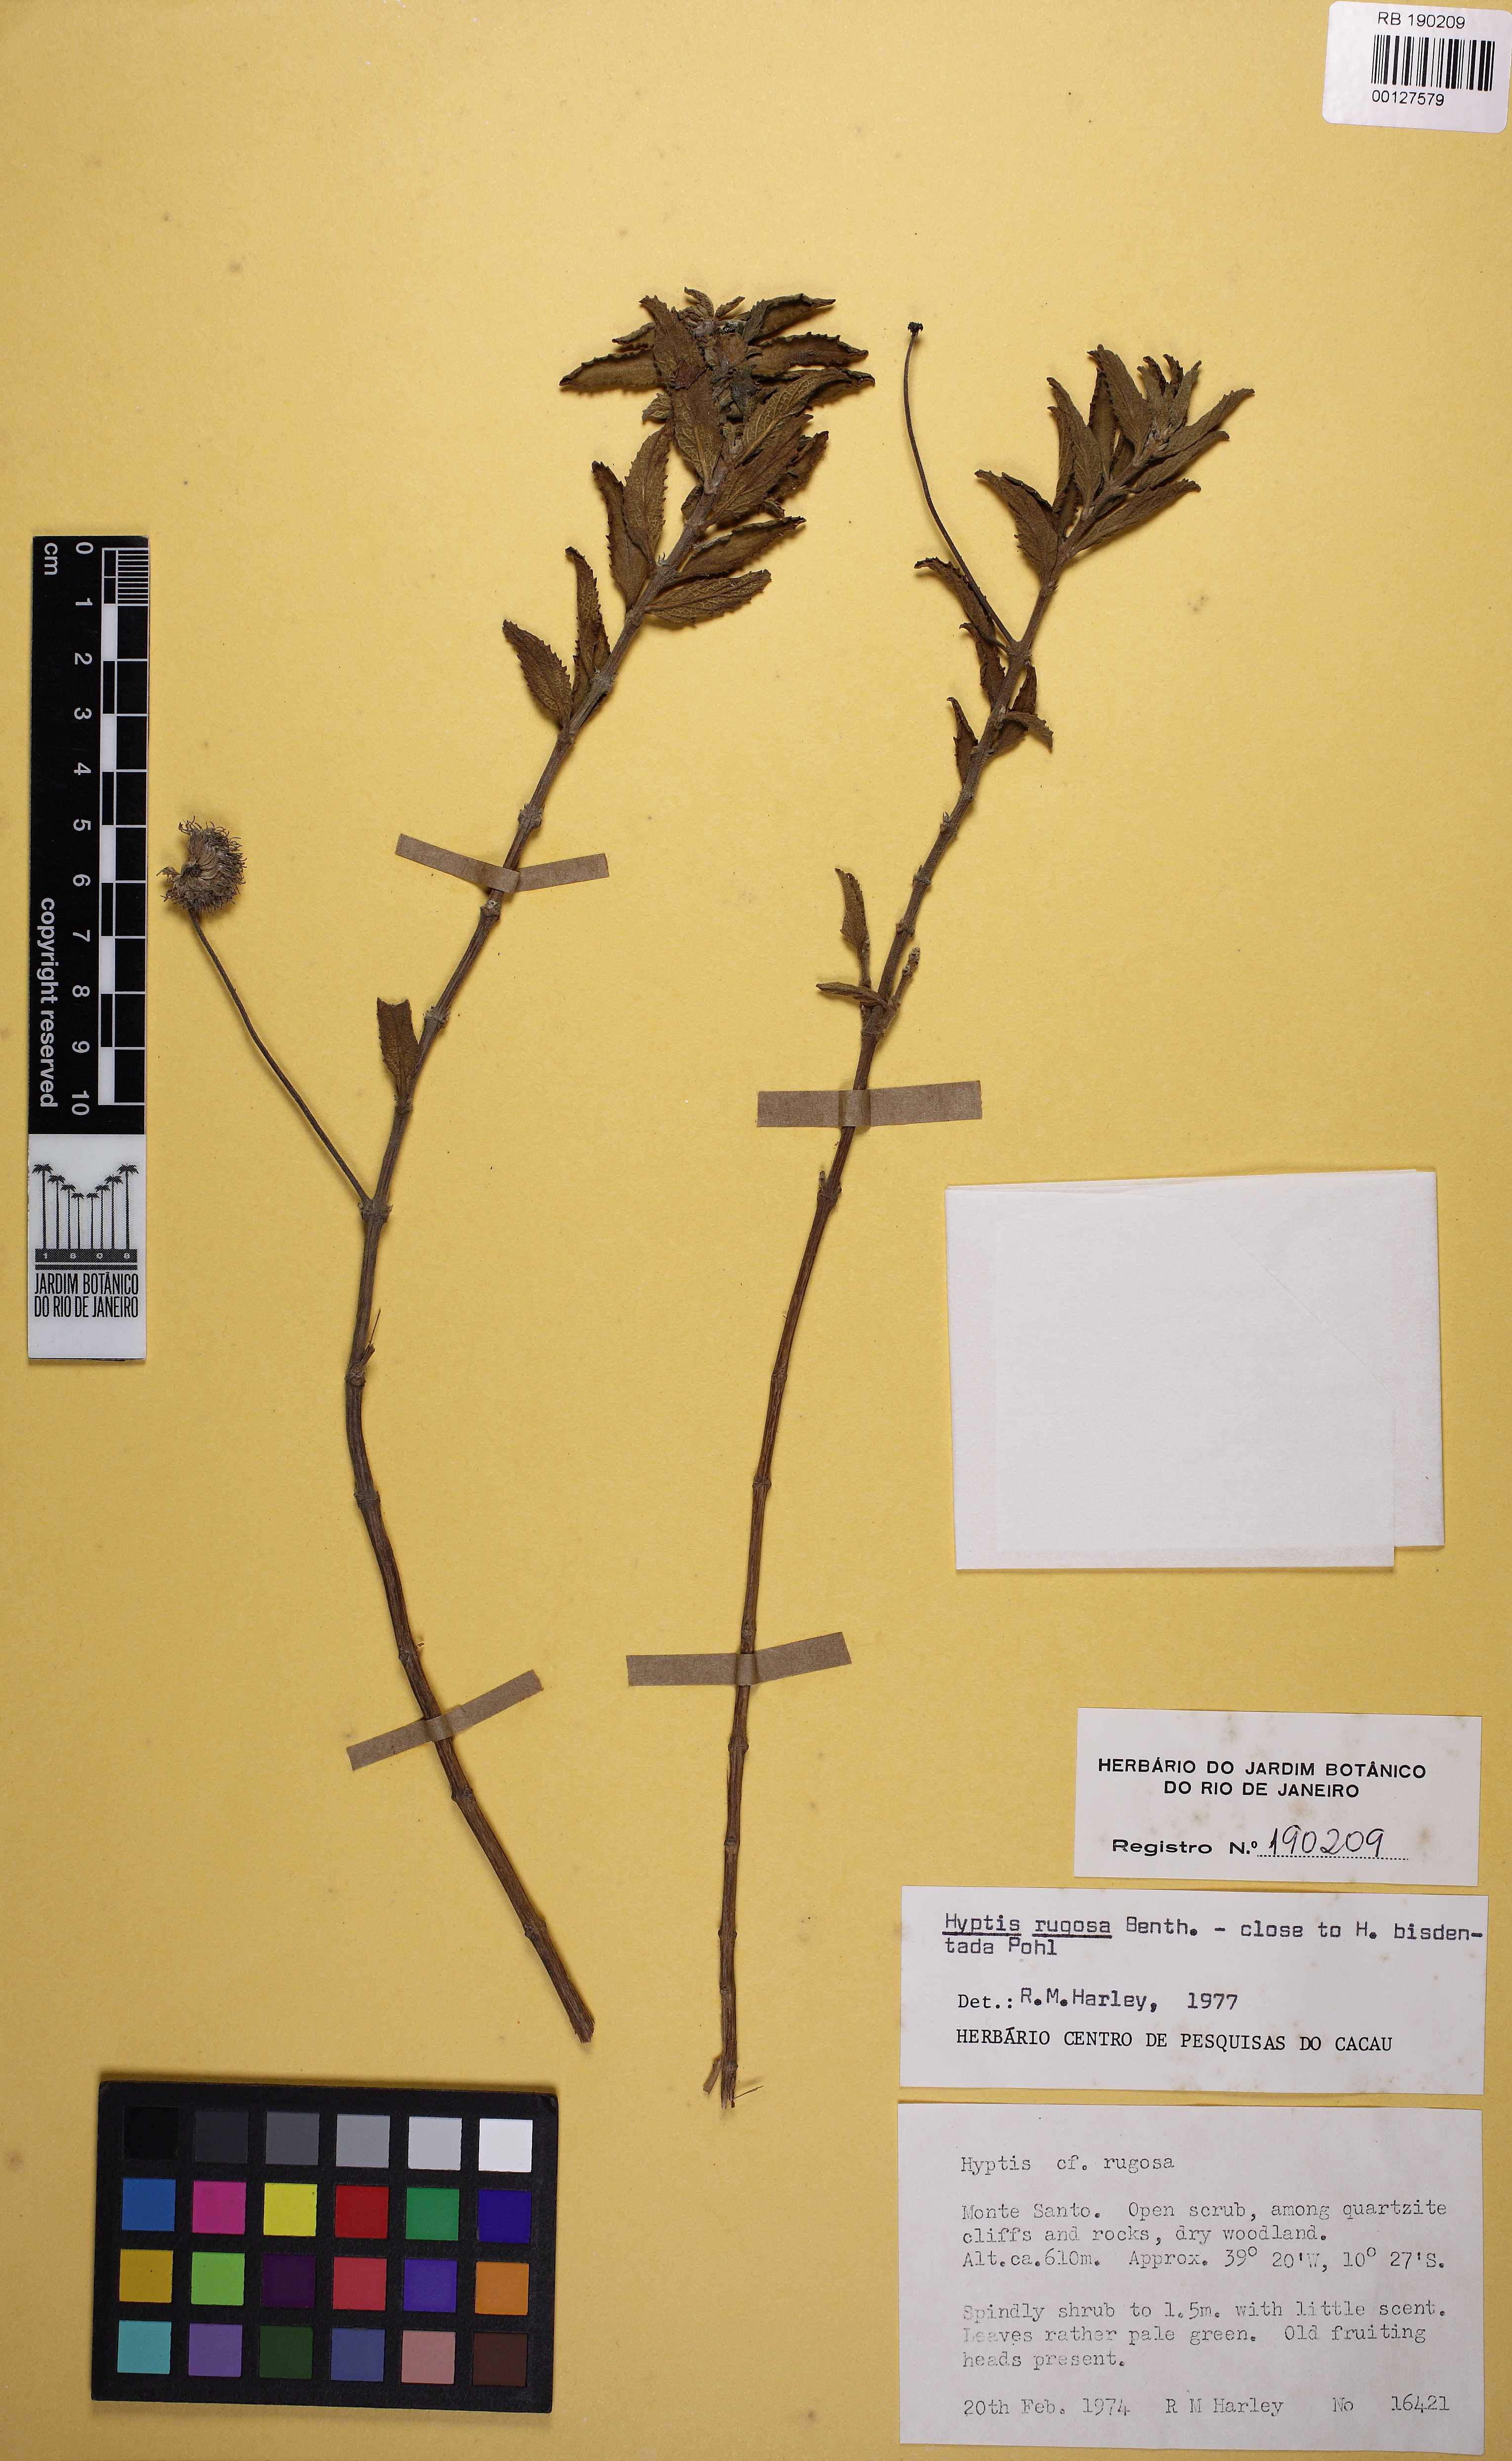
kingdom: Plantae
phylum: Tracheophyta
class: Magnoliopsida
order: Lamiales
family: Lamiaceae
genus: Cyanocephalus
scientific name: Cyanocephalus rugosus
